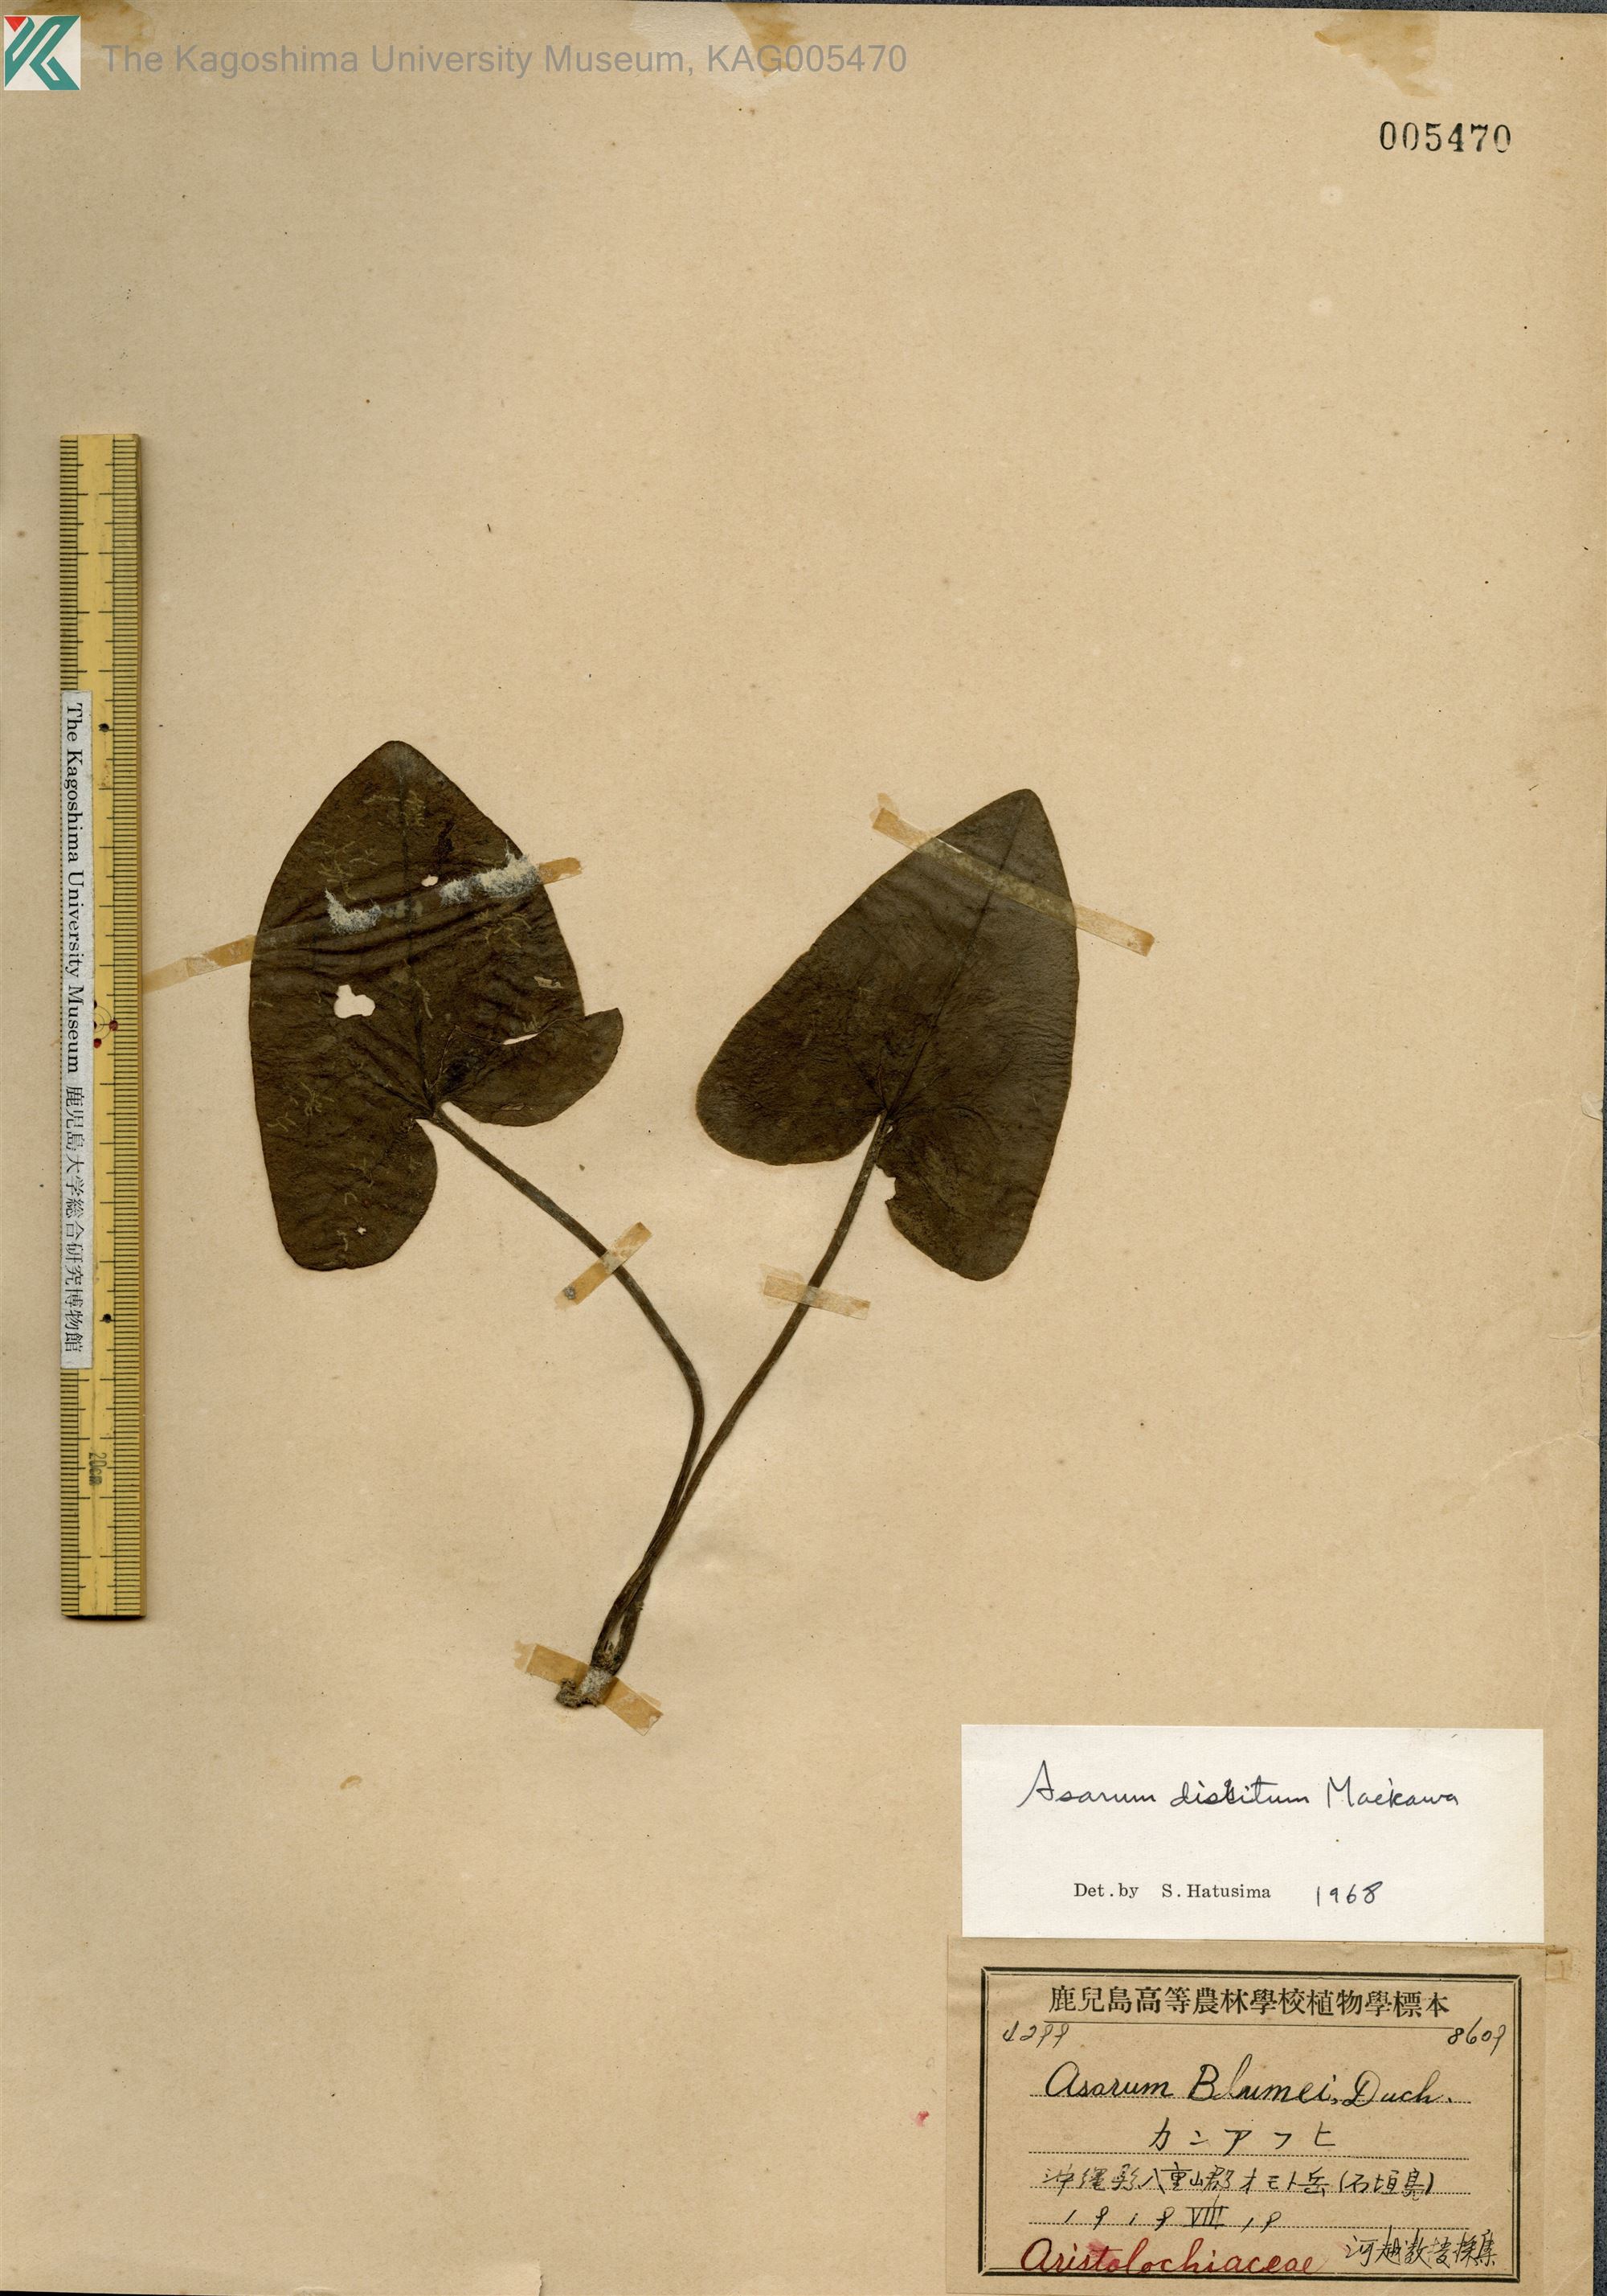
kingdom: Plantae
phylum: Tracheophyta
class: Magnoliopsida
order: Piperales
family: Aristolochiaceae
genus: Asarum
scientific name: Asarum dissitum
